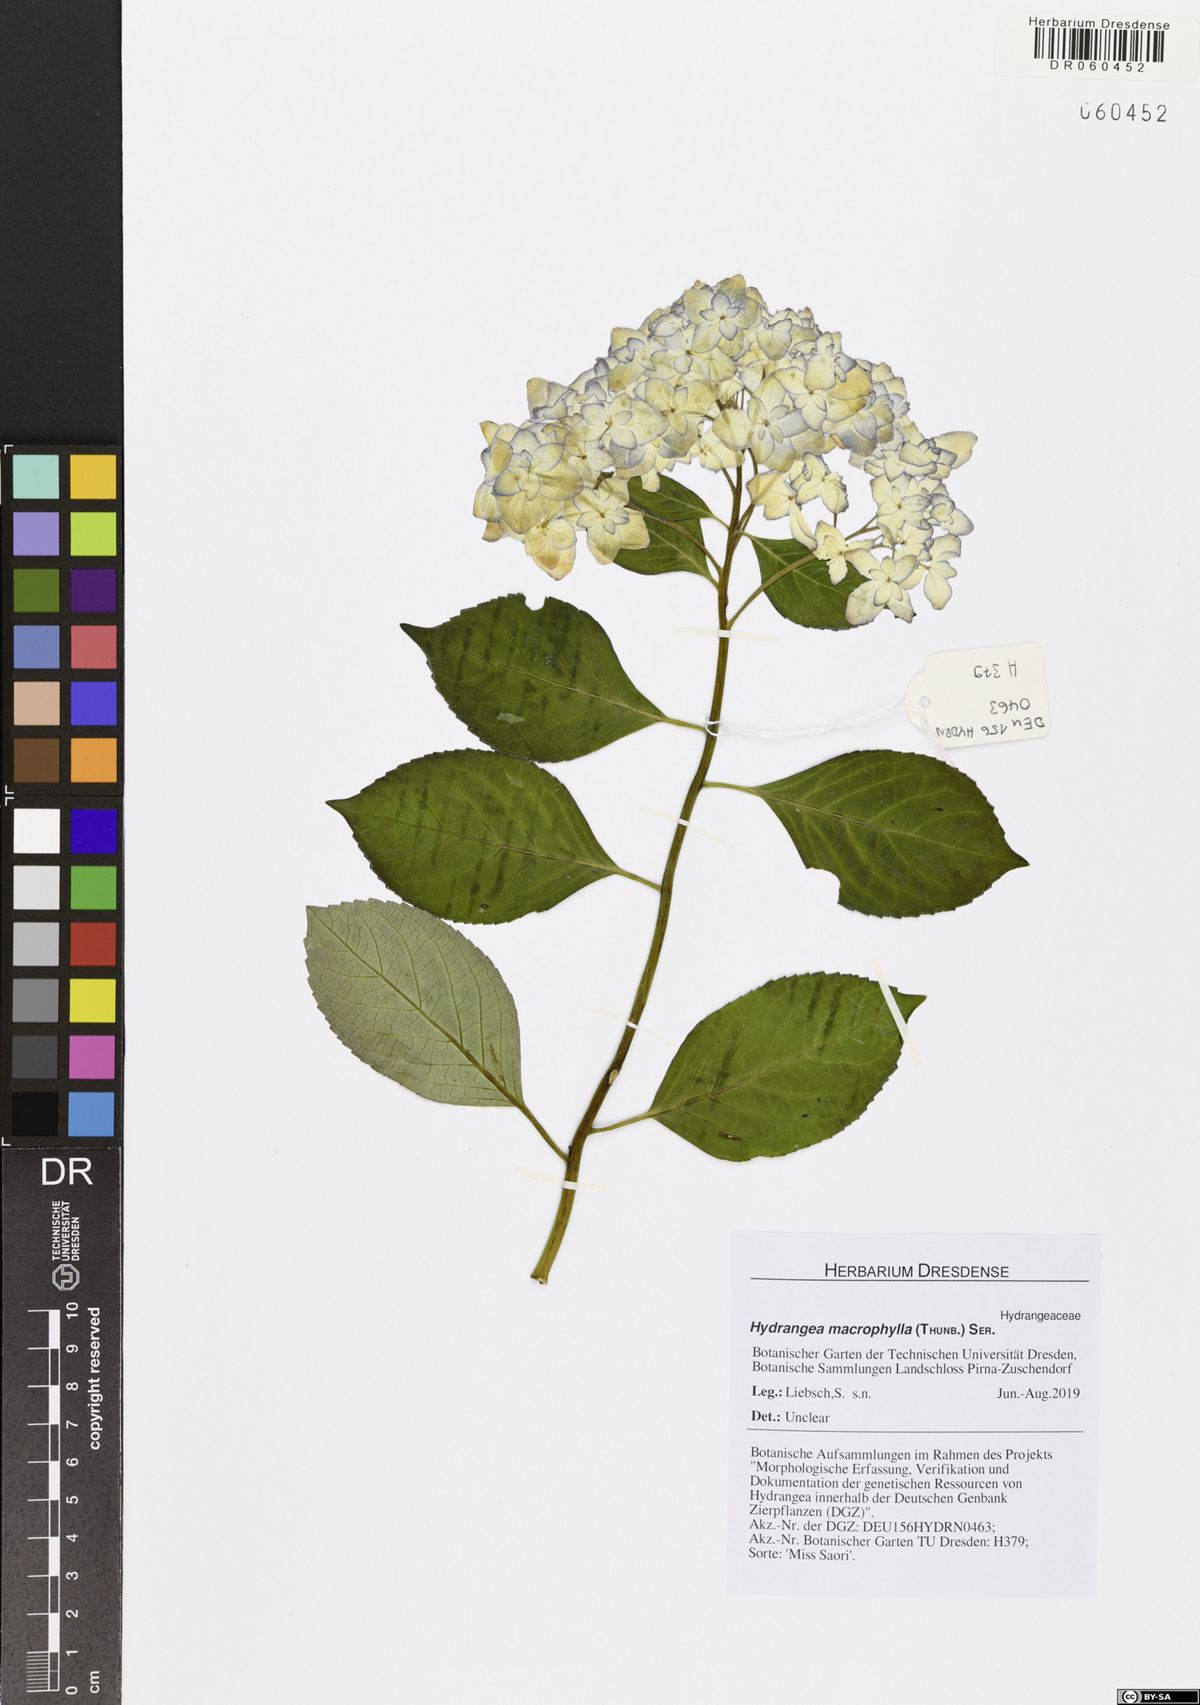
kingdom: Plantae
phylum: Tracheophyta
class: Magnoliopsida
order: Cornales
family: Hydrangeaceae
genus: Hydrangea
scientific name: Hydrangea macrophylla
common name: Hydrangea
